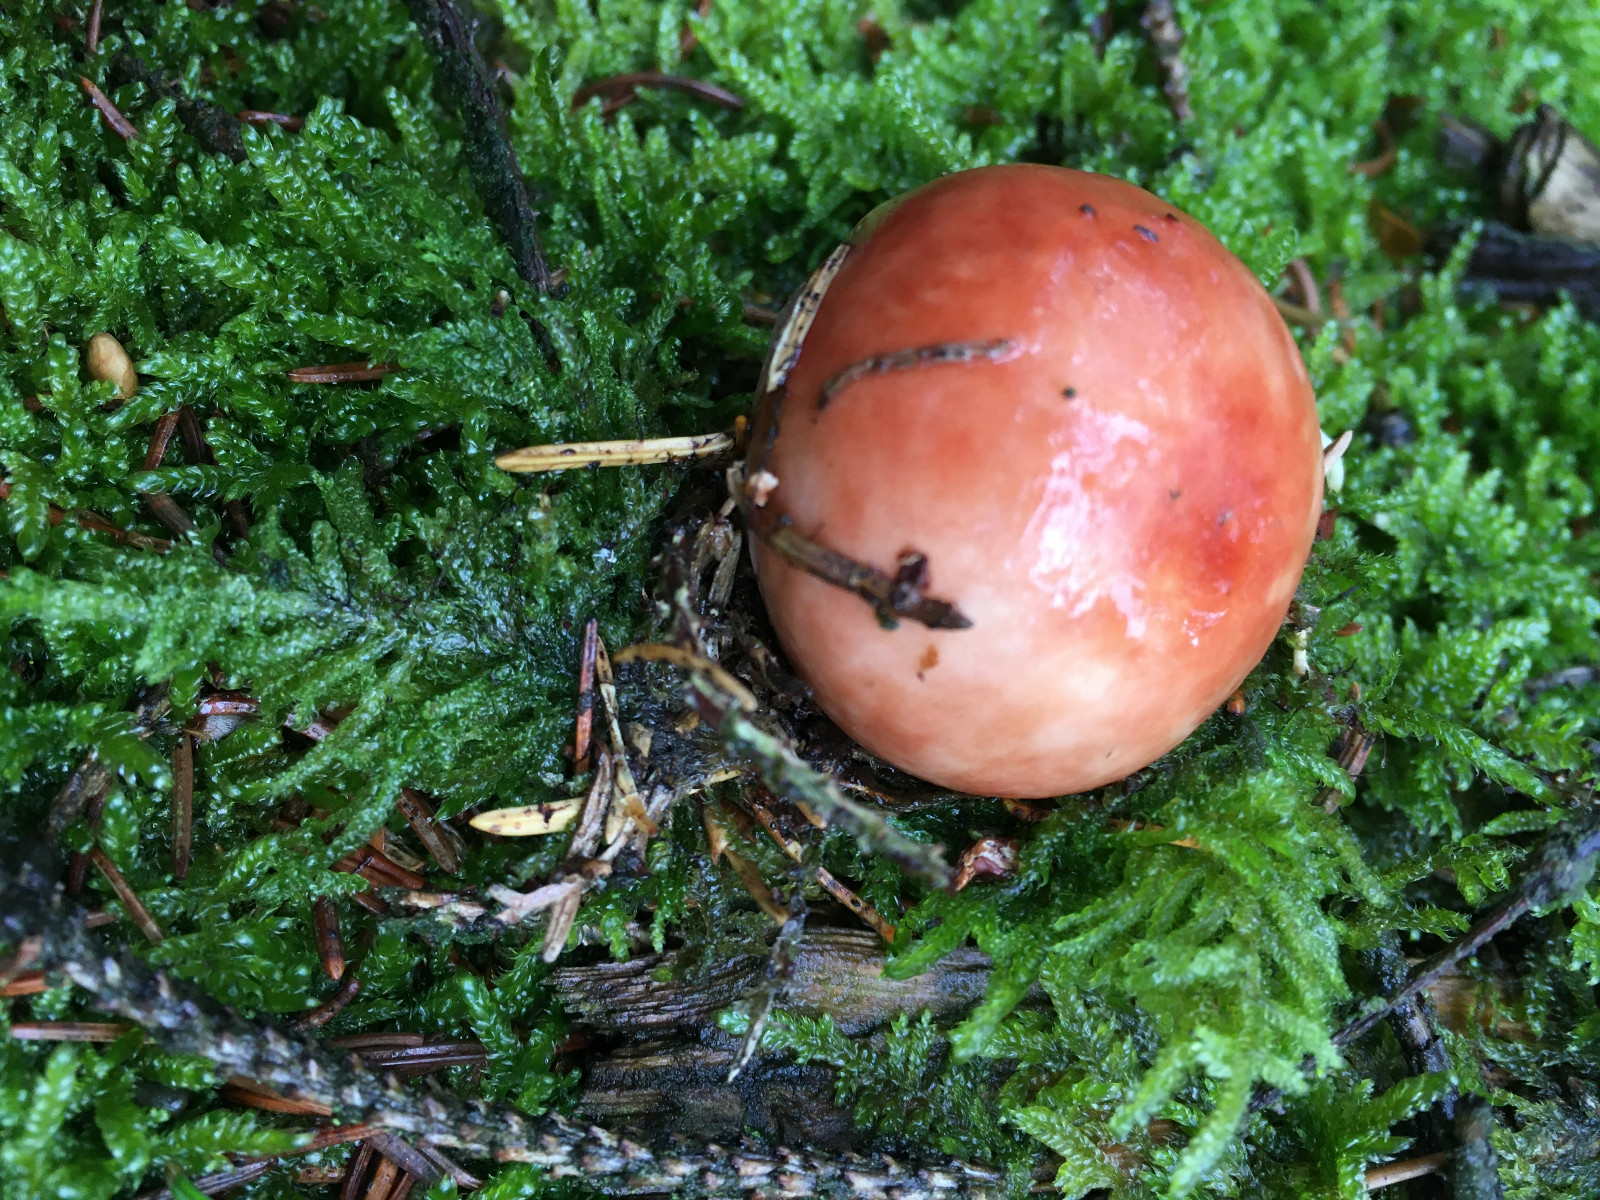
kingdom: Fungi
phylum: Basidiomycota
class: Agaricomycetes
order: Russulales
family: Russulaceae
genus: Russula
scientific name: Russula paludosa
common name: prægtig skørhat
